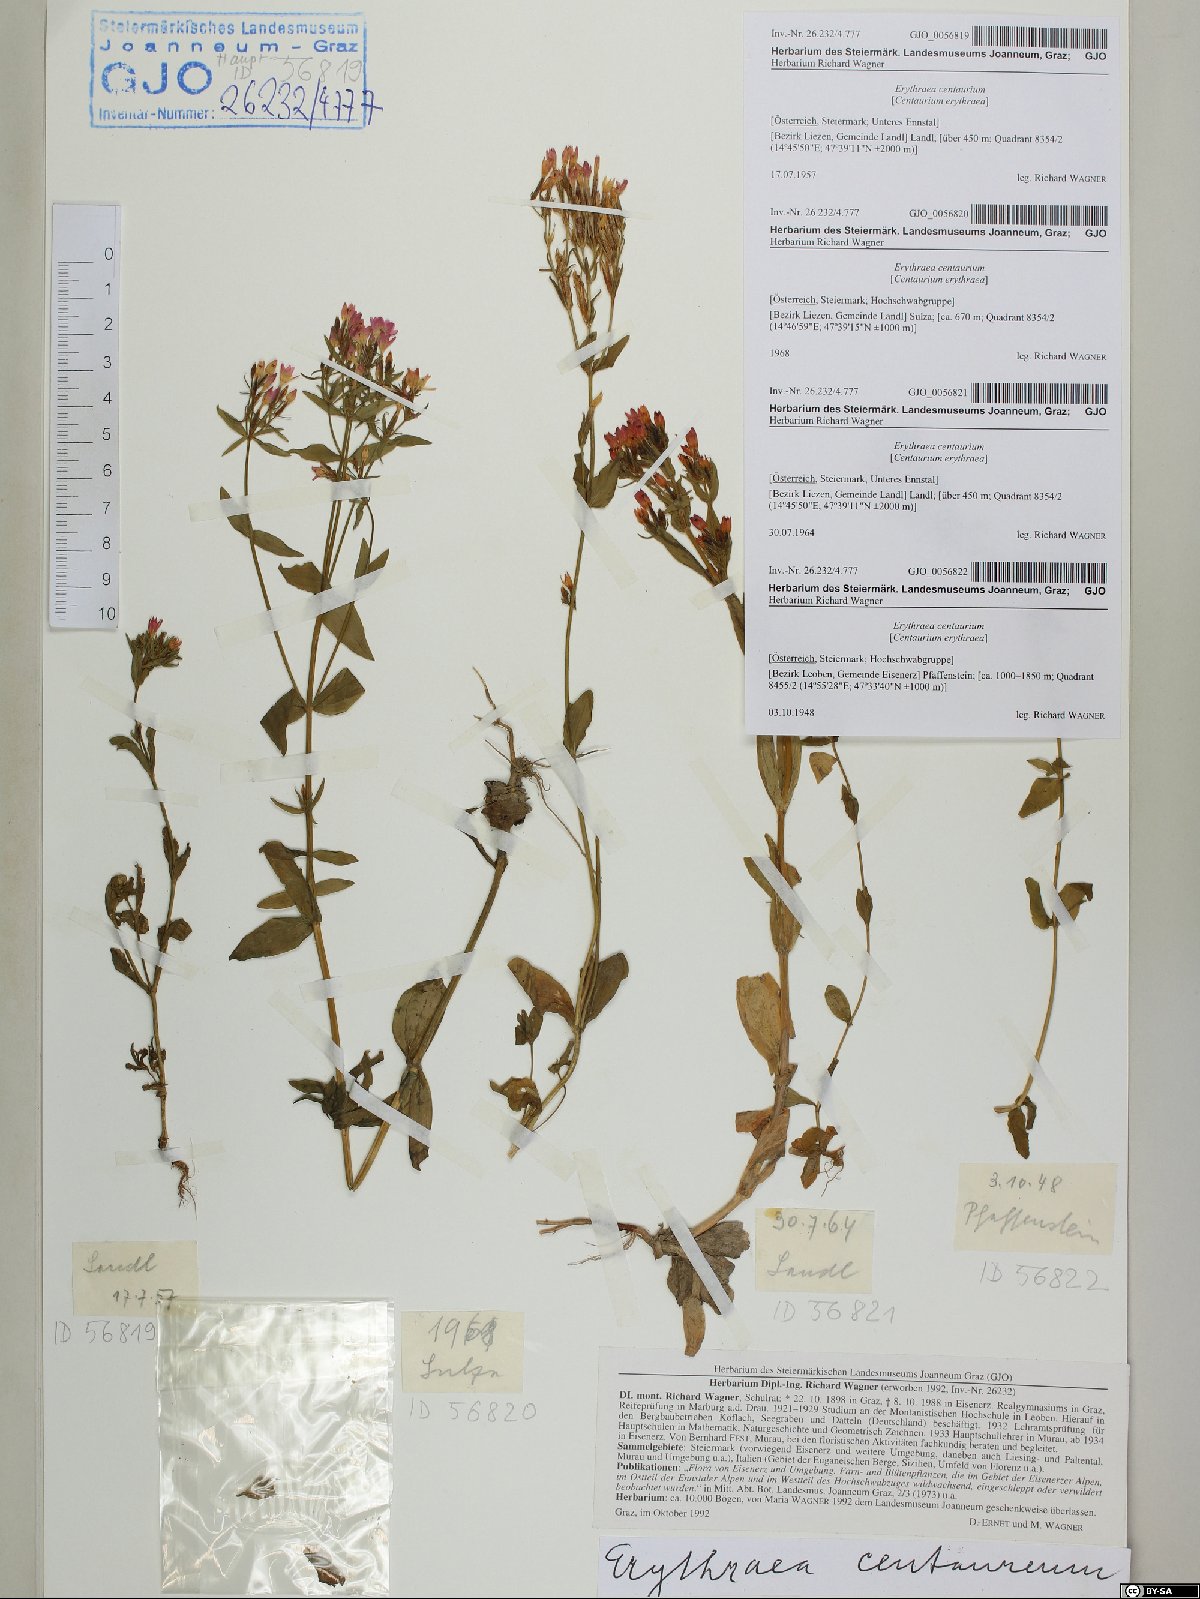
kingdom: Plantae
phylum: Tracheophyta
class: Magnoliopsida
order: Gentianales
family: Gentianaceae
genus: Centaurium
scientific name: Centaurium erythraea
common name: Common centaury
